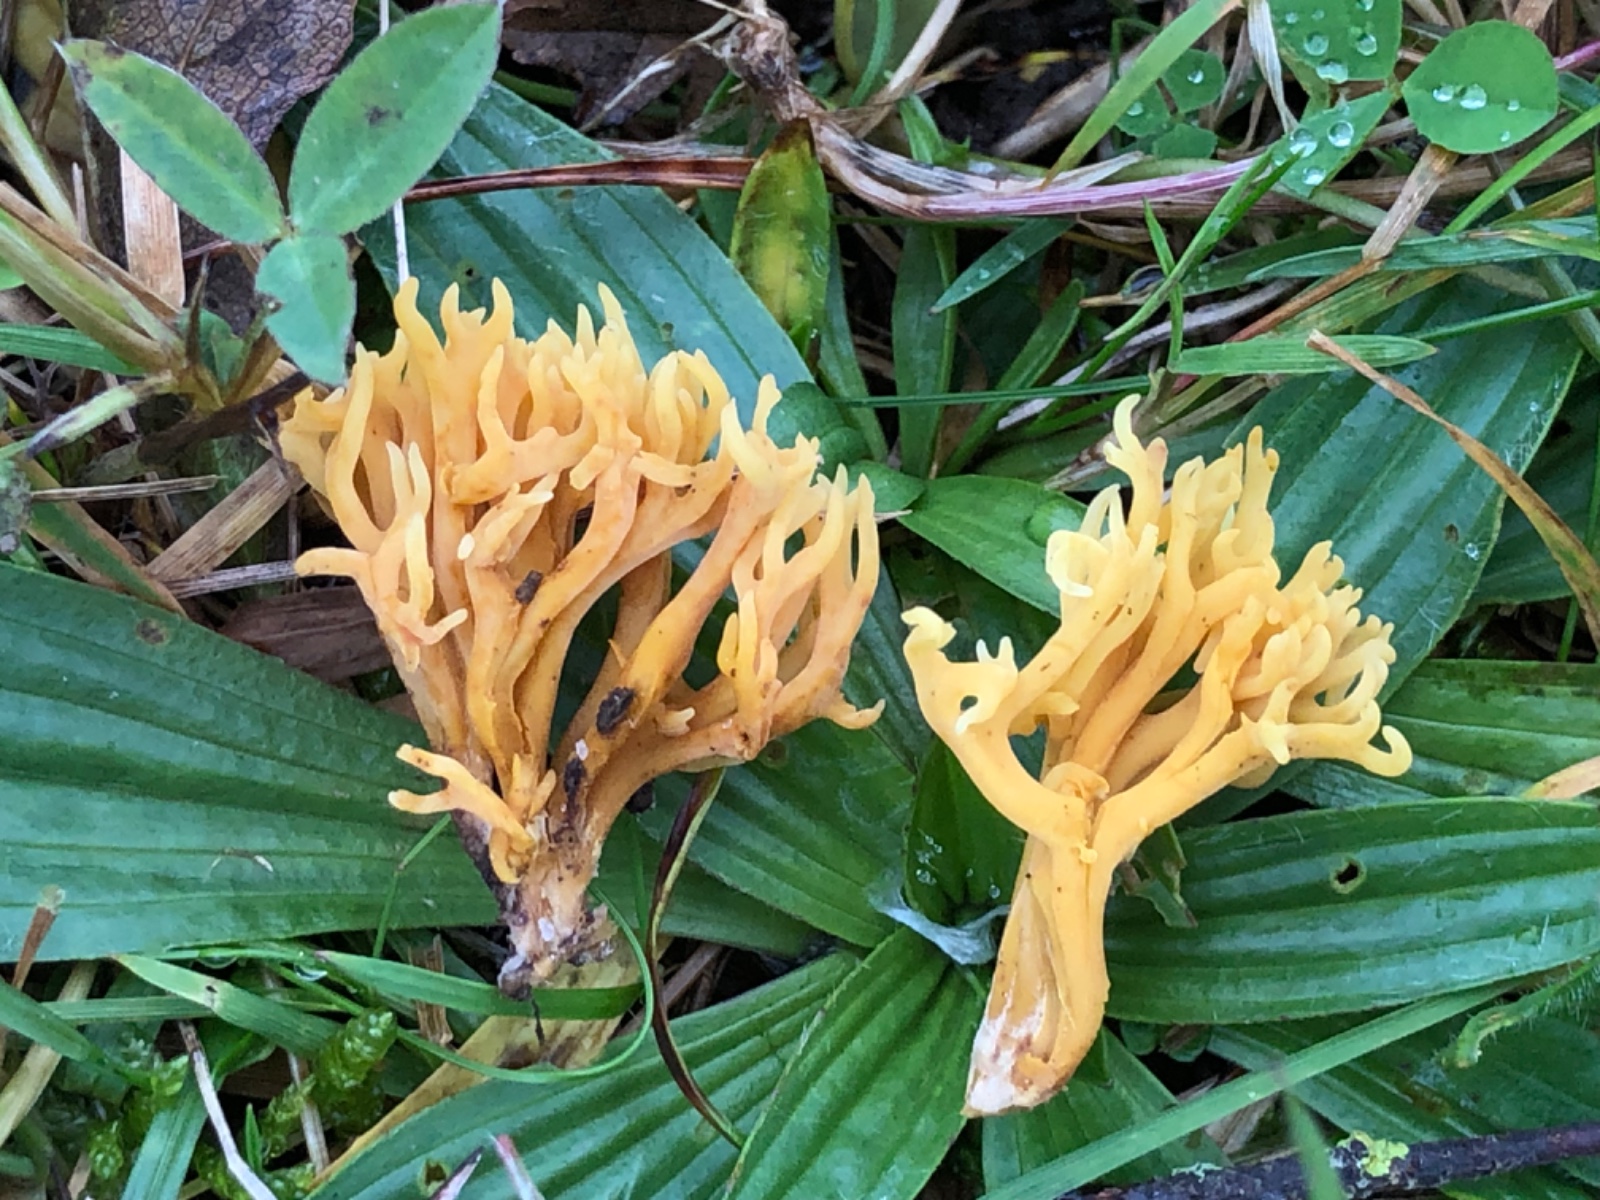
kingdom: Fungi
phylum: Basidiomycota
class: Agaricomycetes
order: Agaricales
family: Clavariaceae
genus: Clavulinopsis
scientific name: Clavulinopsis corniculata
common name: eng-køllesvamp
